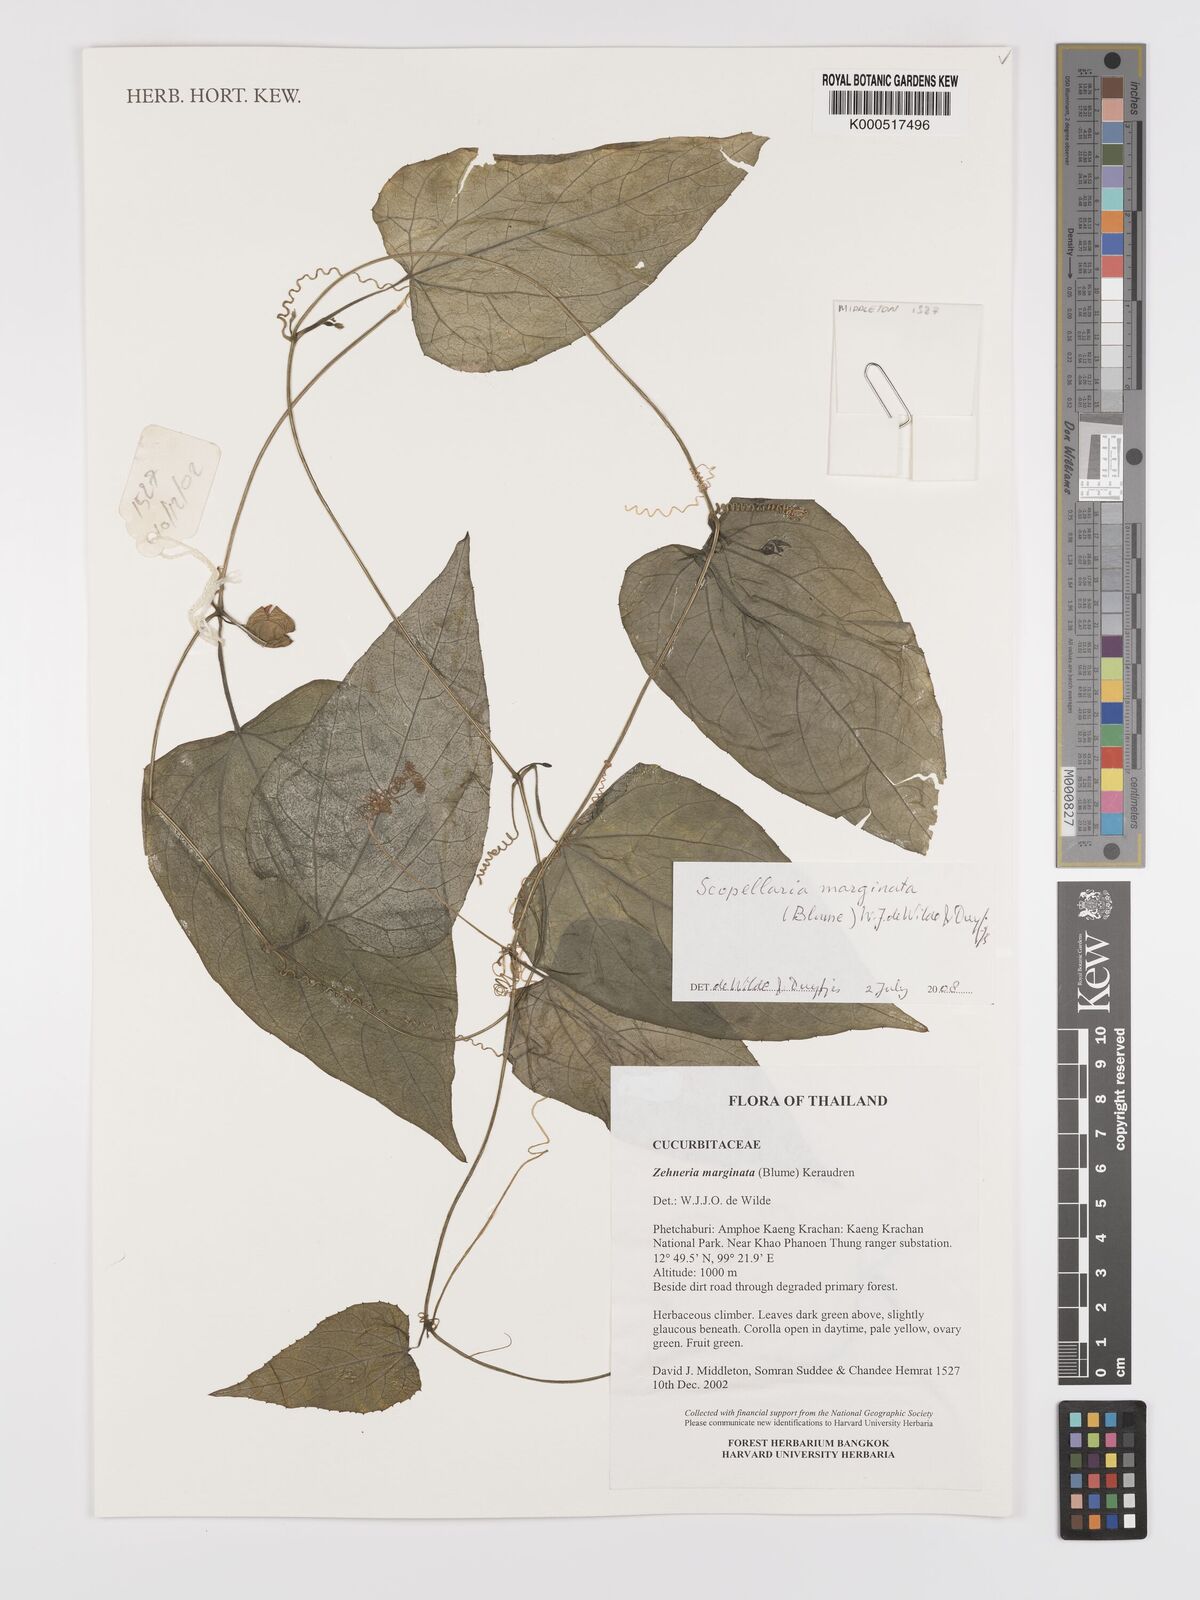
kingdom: Plantae
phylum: Tracheophyta
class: Magnoliopsida
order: Cucurbitales
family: Cucurbitaceae
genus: Scopellaria
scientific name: Scopellaria marginata
